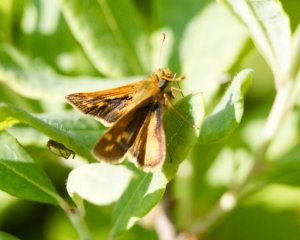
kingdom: Animalia
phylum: Arthropoda
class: Insecta
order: Lepidoptera
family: Hesperiidae
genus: Polites
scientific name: Polites coras
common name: Peck's Skipper
